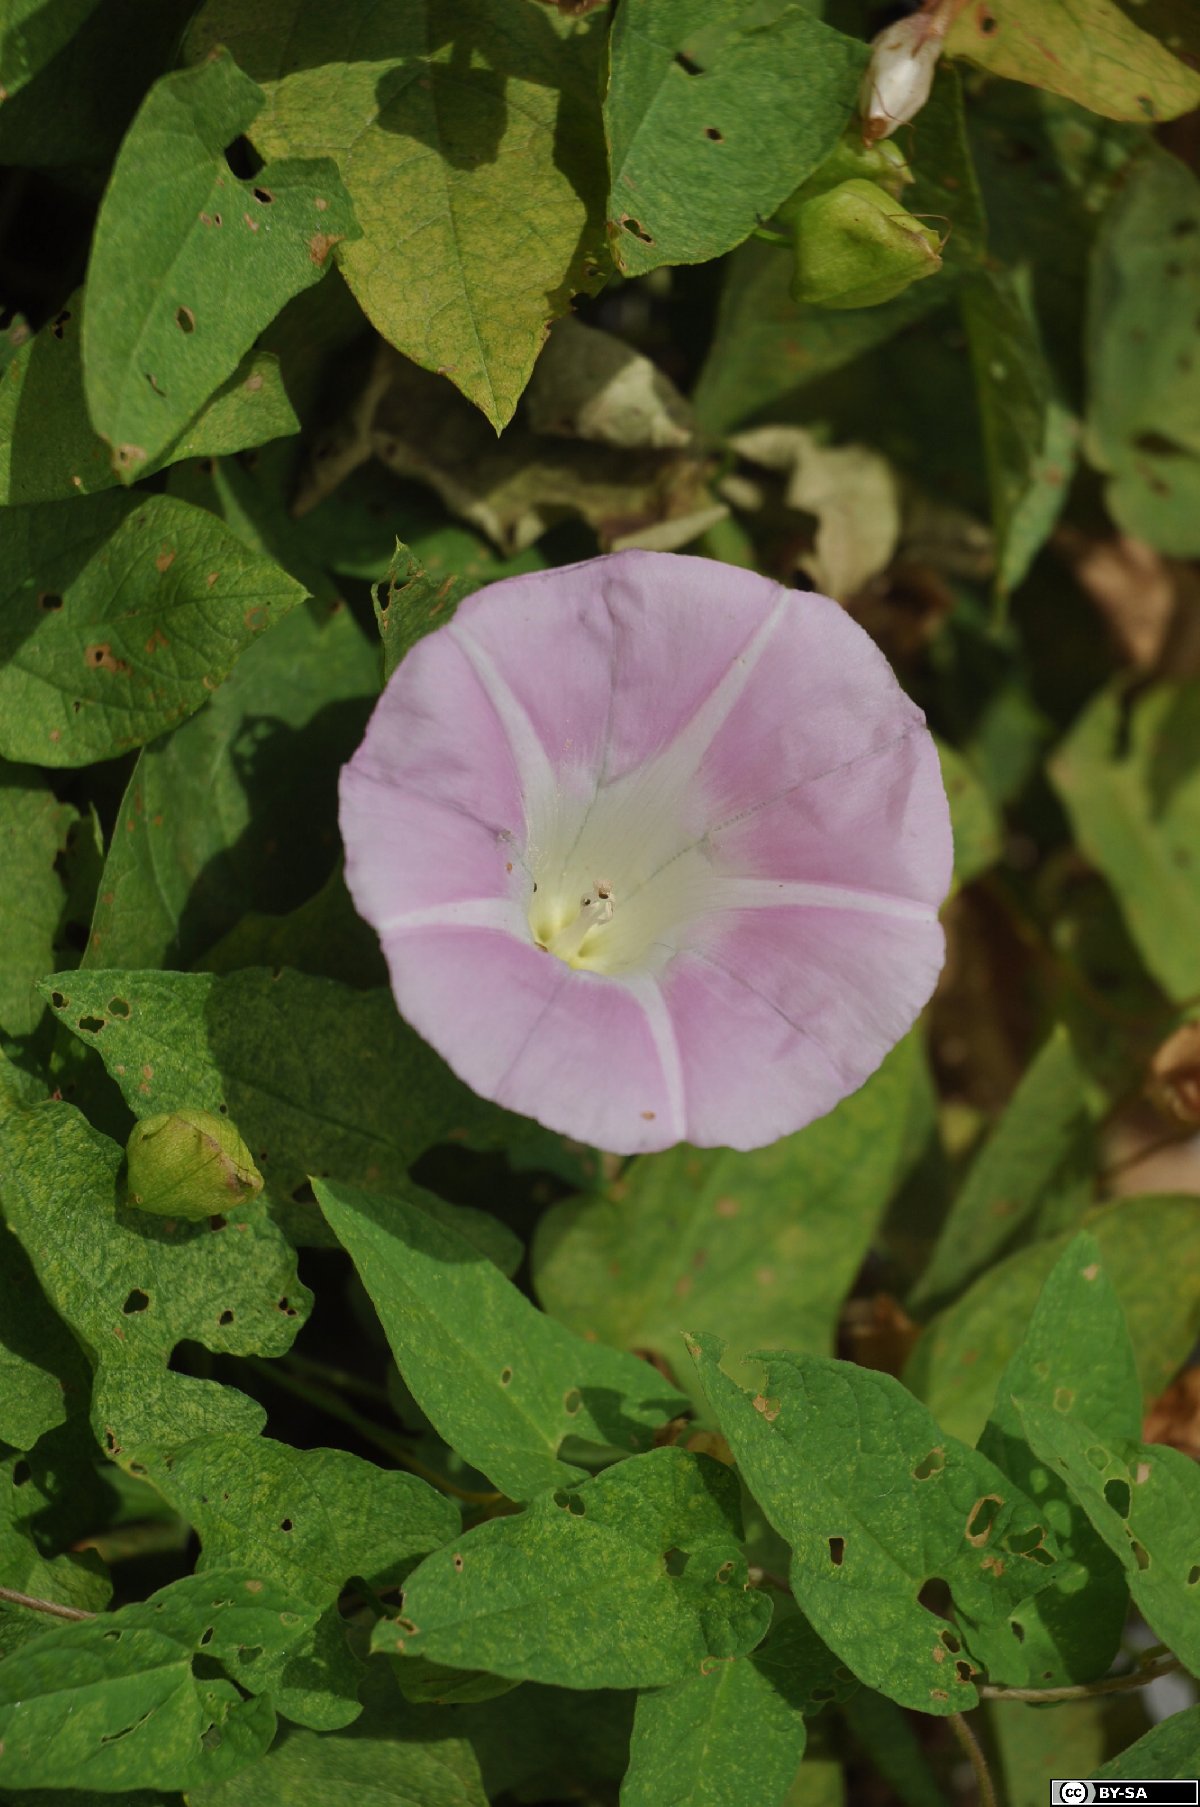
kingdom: Plantae
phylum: Tracheophyta
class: Magnoliopsida
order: Solanales
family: Convolvulaceae
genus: Calystegia
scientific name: Calystegia pulchra
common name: Hairy bindweed
